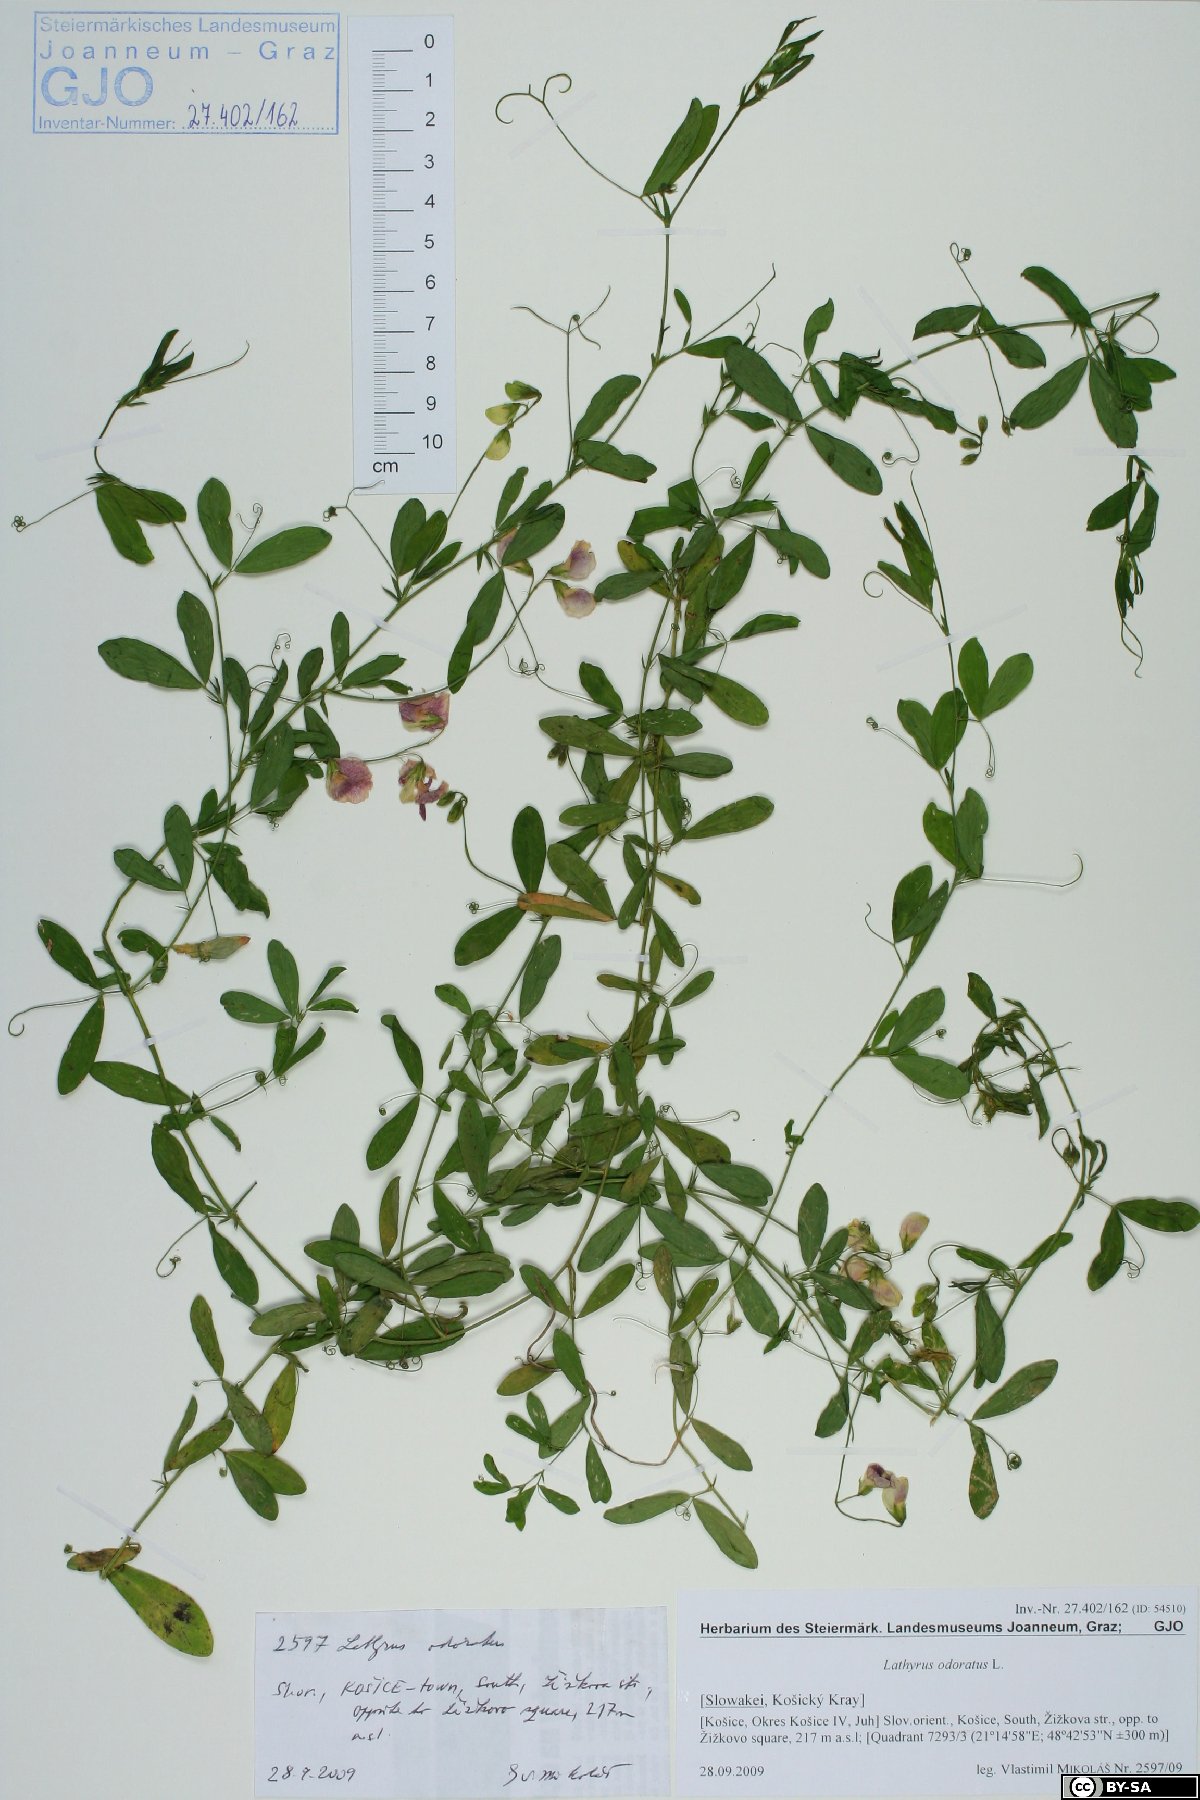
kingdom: Plantae
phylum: Tracheophyta
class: Magnoliopsida
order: Fabales
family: Fabaceae
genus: Lathyrus
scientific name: Lathyrus odoratus
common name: Sweet pea
